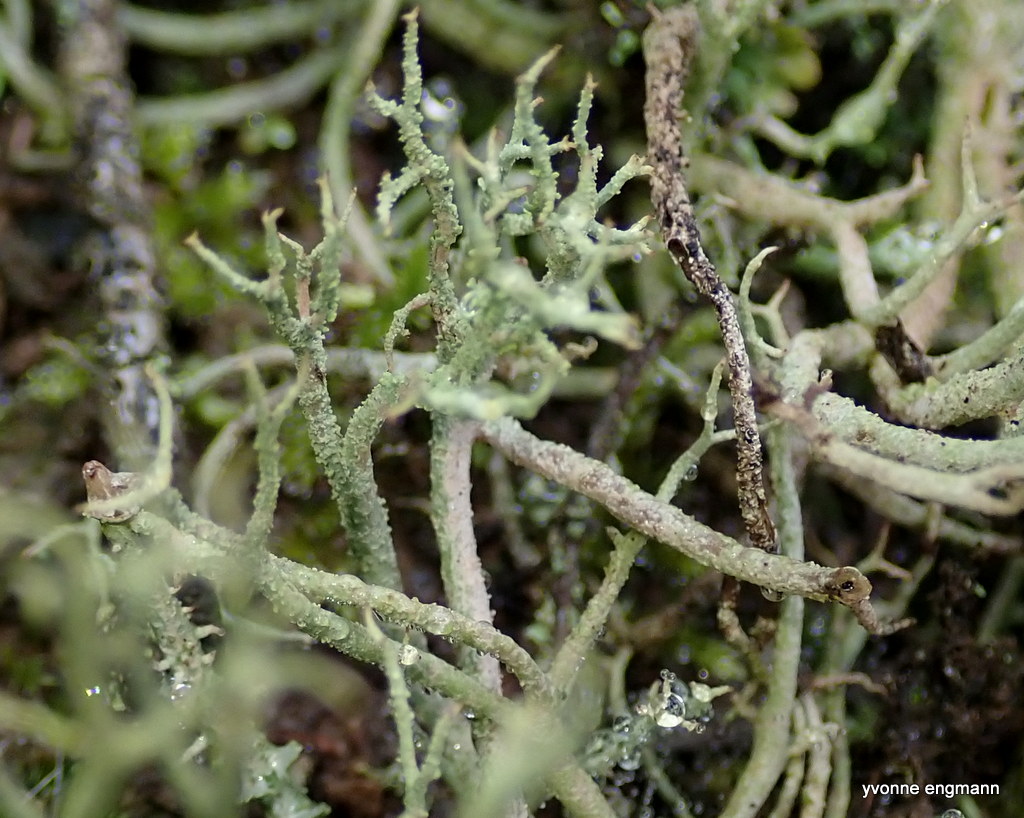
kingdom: Fungi
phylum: Ascomycota
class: Lecanoromycetes
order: Lecanorales
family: Cladoniaceae
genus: Cladonia
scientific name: Cladonia scabriuscula
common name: ru bægerlav
